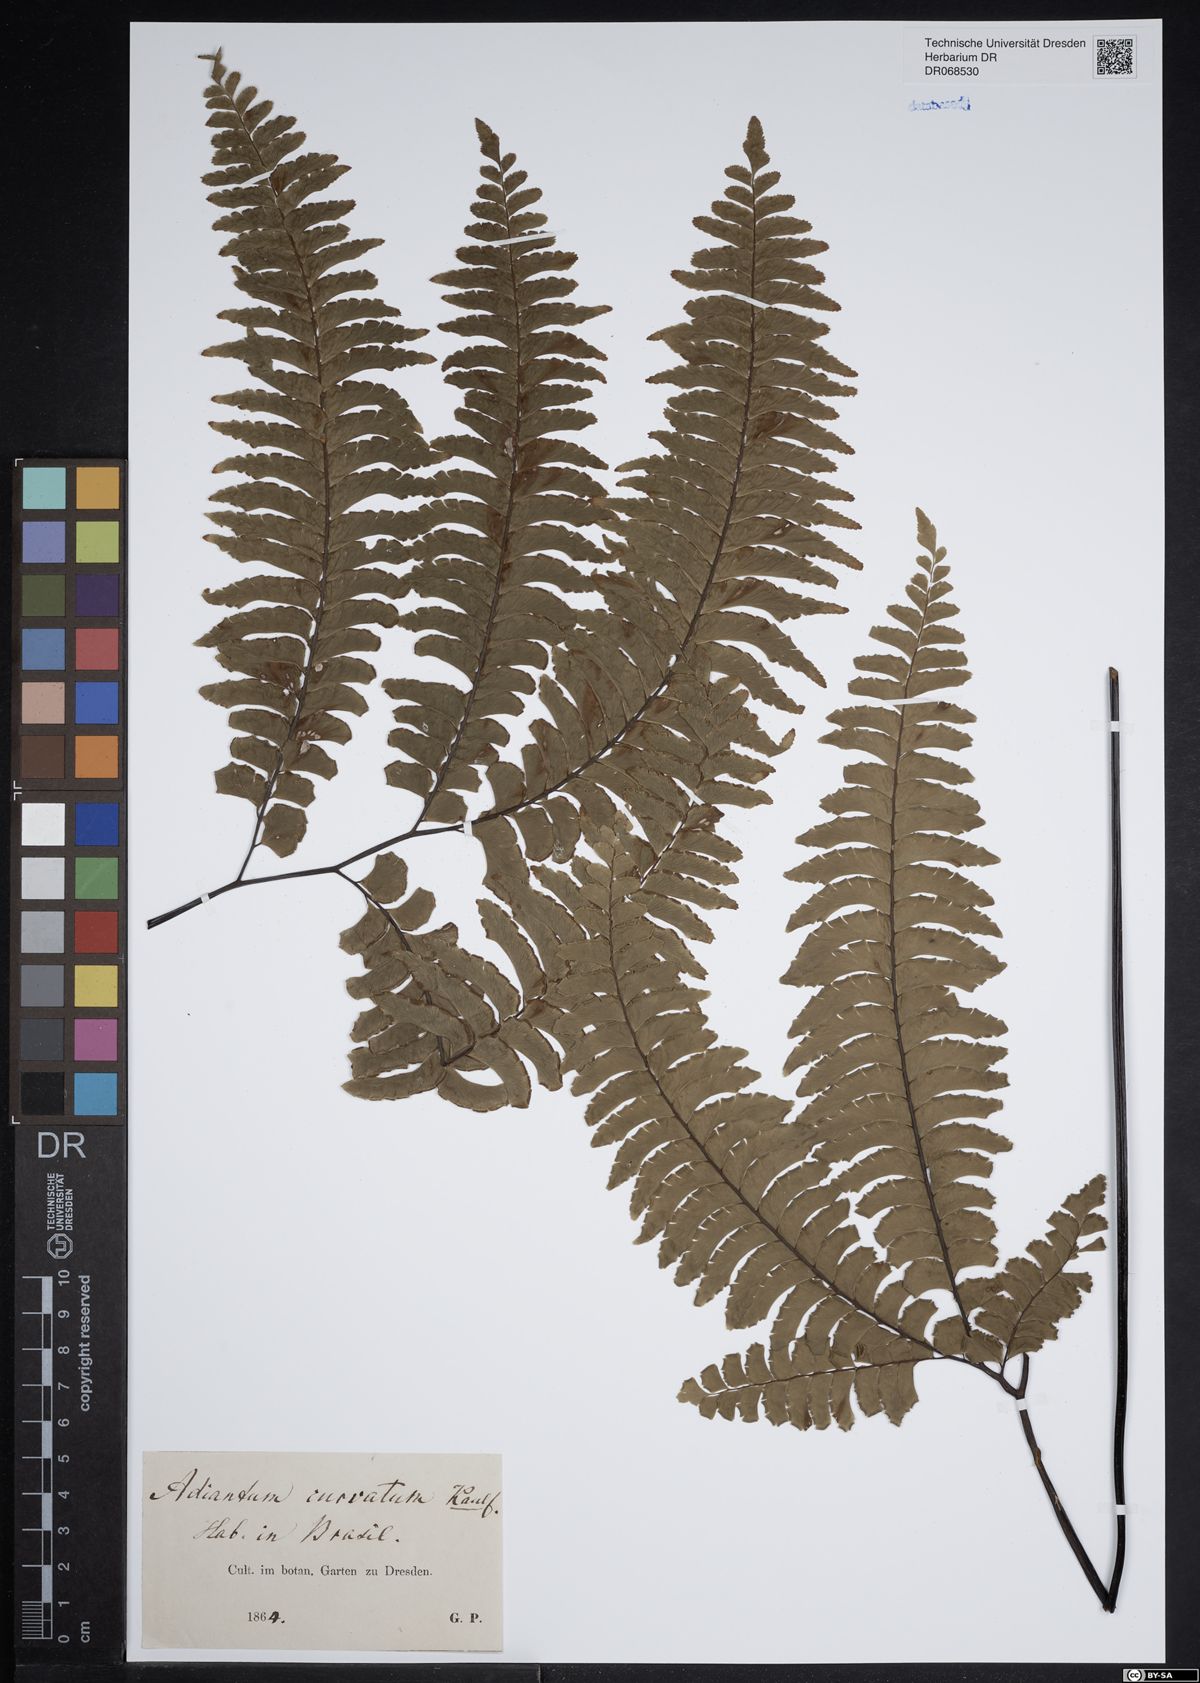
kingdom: Plantae
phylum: Tracheophyta
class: Polypodiopsida
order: Polypodiales
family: Pteridaceae
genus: Adiantum
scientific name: Adiantum curvatum
